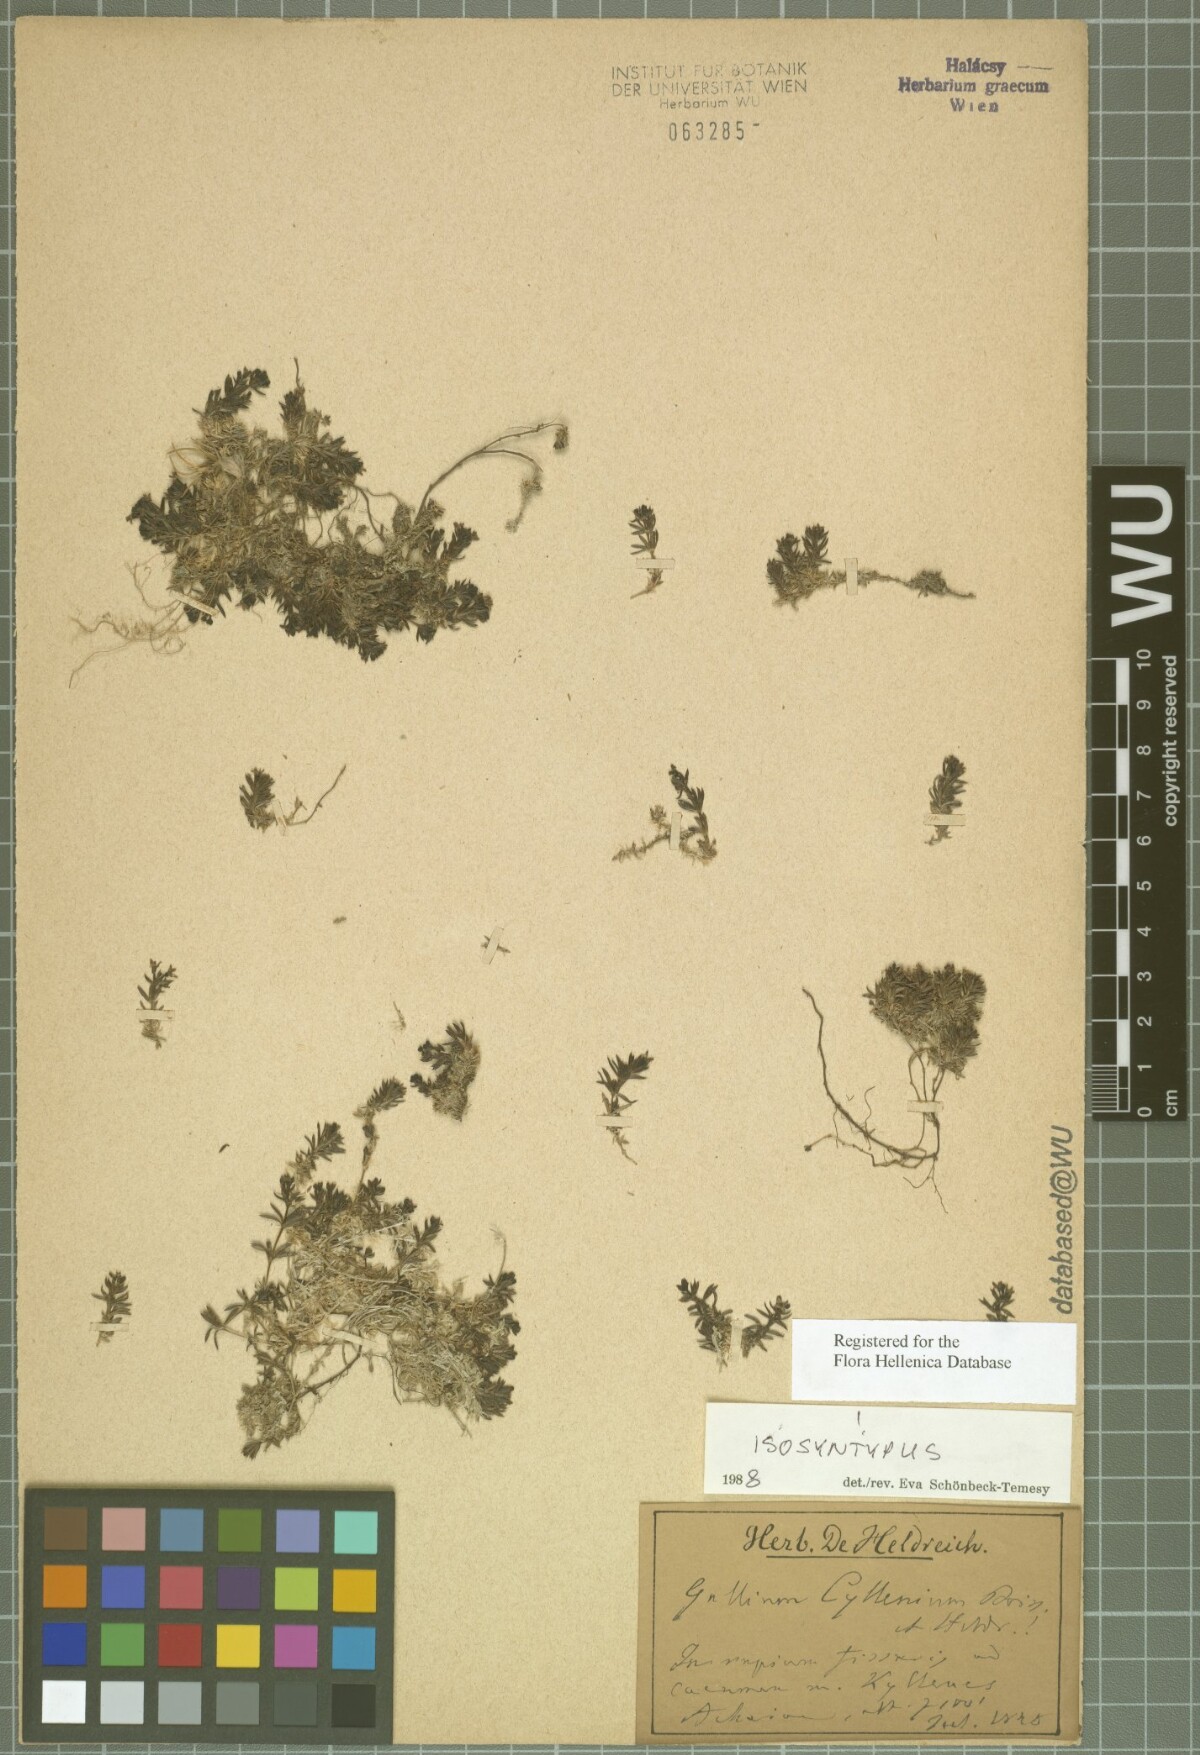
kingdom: Plantae
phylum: Tracheophyta
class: Magnoliopsida
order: Gentianales
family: Rubiaceae
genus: Galium
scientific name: Galium cyllenium
